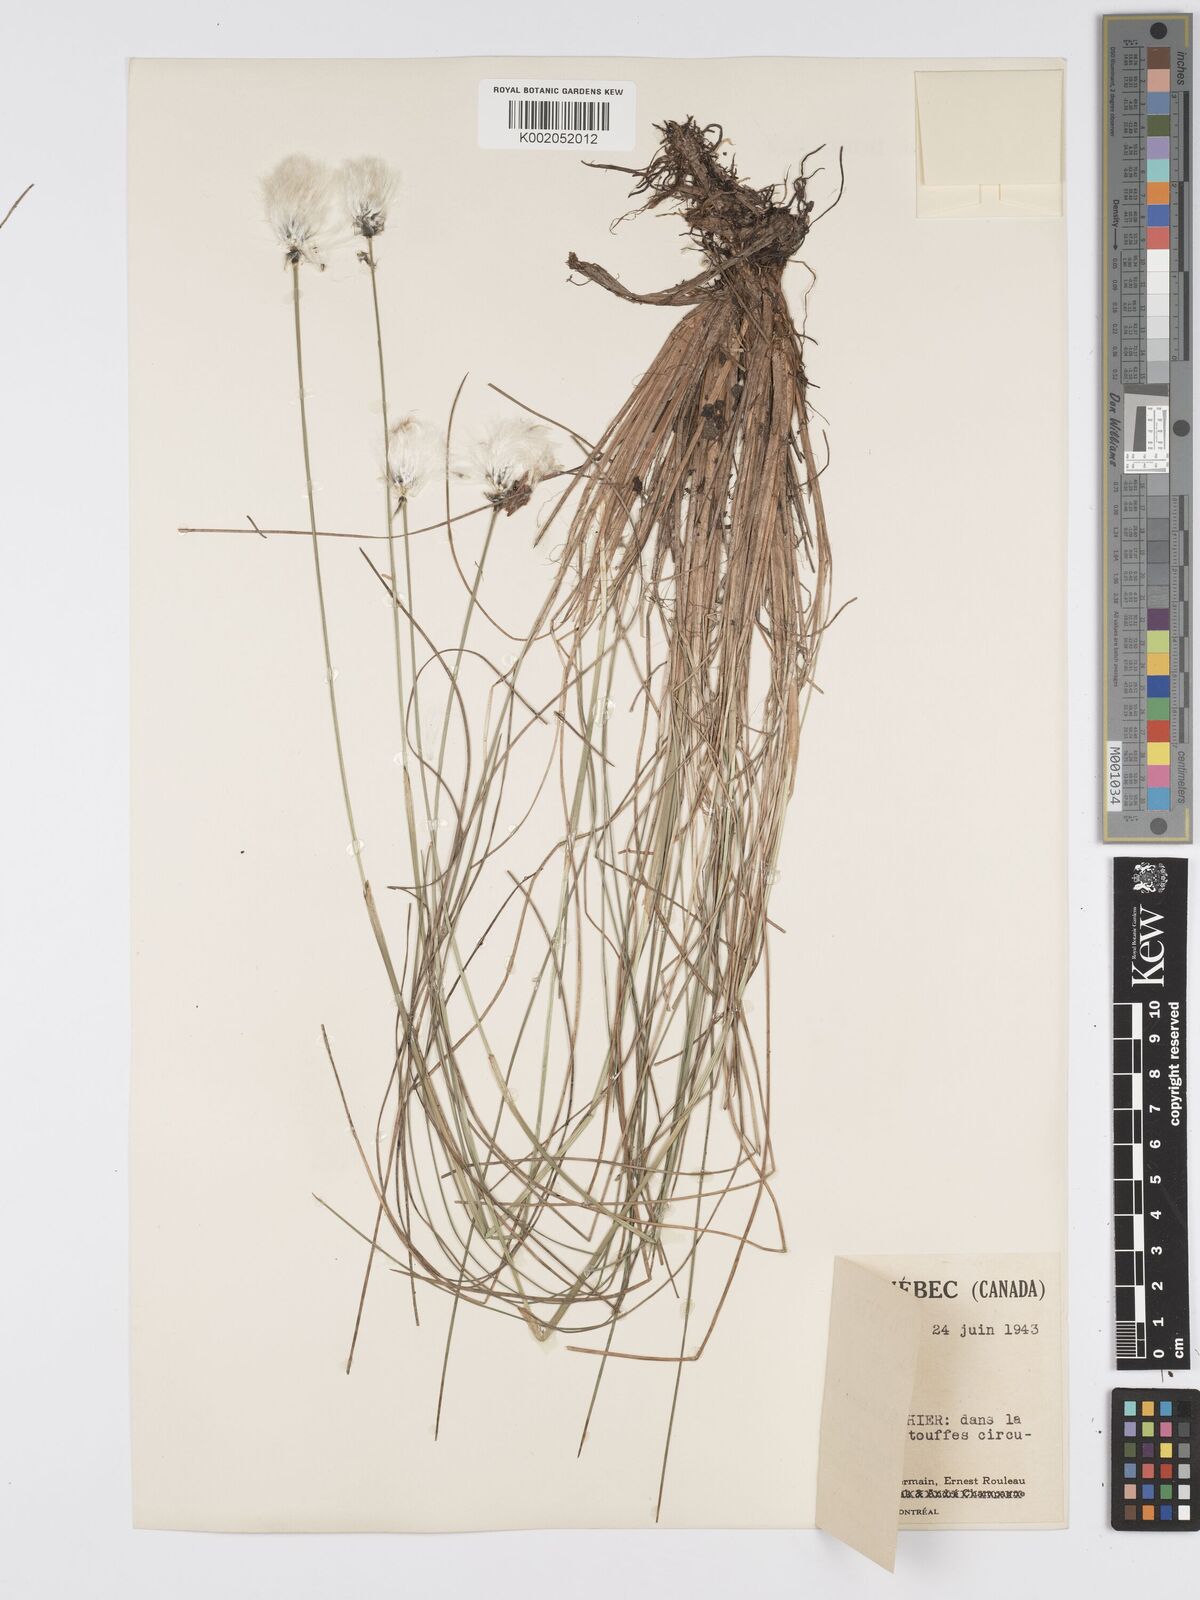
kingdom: Plantae
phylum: Tracheophyta
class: Liliopsida
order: Poales
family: Cyperaceae
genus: Eriophorum
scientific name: Eriophorum vaginatum
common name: Hare's-tail cottongrass
